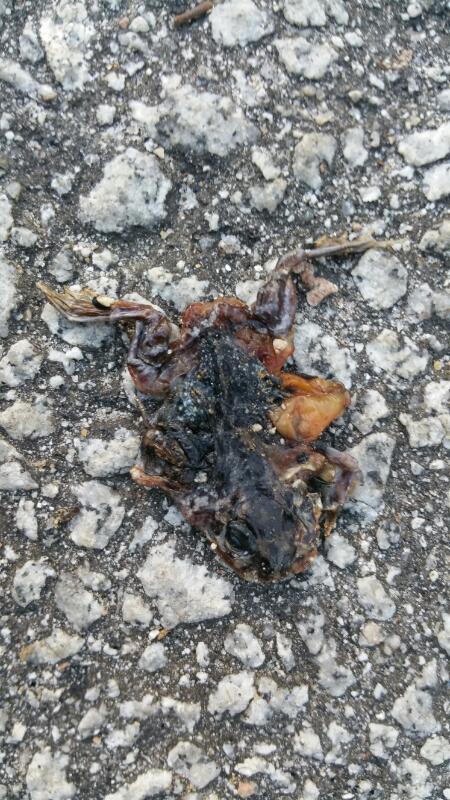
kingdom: Animalia
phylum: Chordata
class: Amphibia
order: Anura
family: Pelobatidae
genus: Pelobates
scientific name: Pelobates cultripes
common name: Western spadefoot
